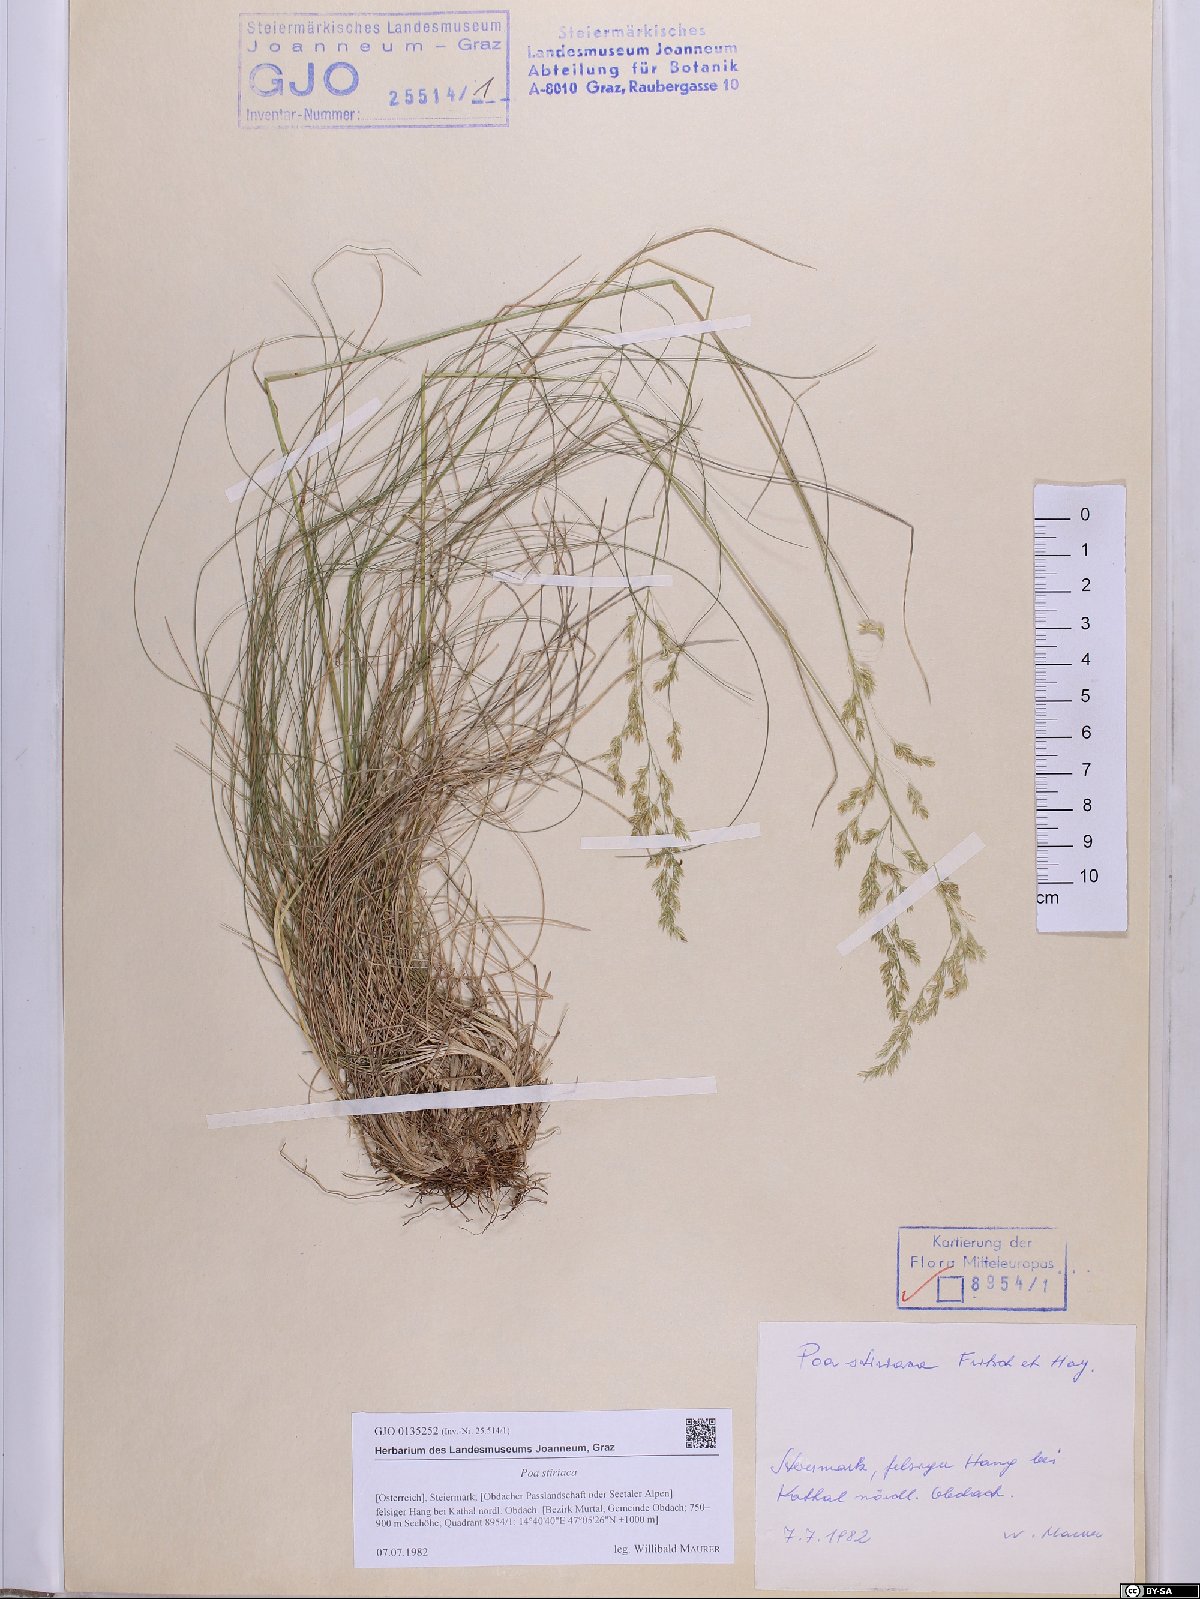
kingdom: Plantae
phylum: Tracheophyta
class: Liliopsida
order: Poales
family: Poaceae
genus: Poa
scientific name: Poa stiriaca
